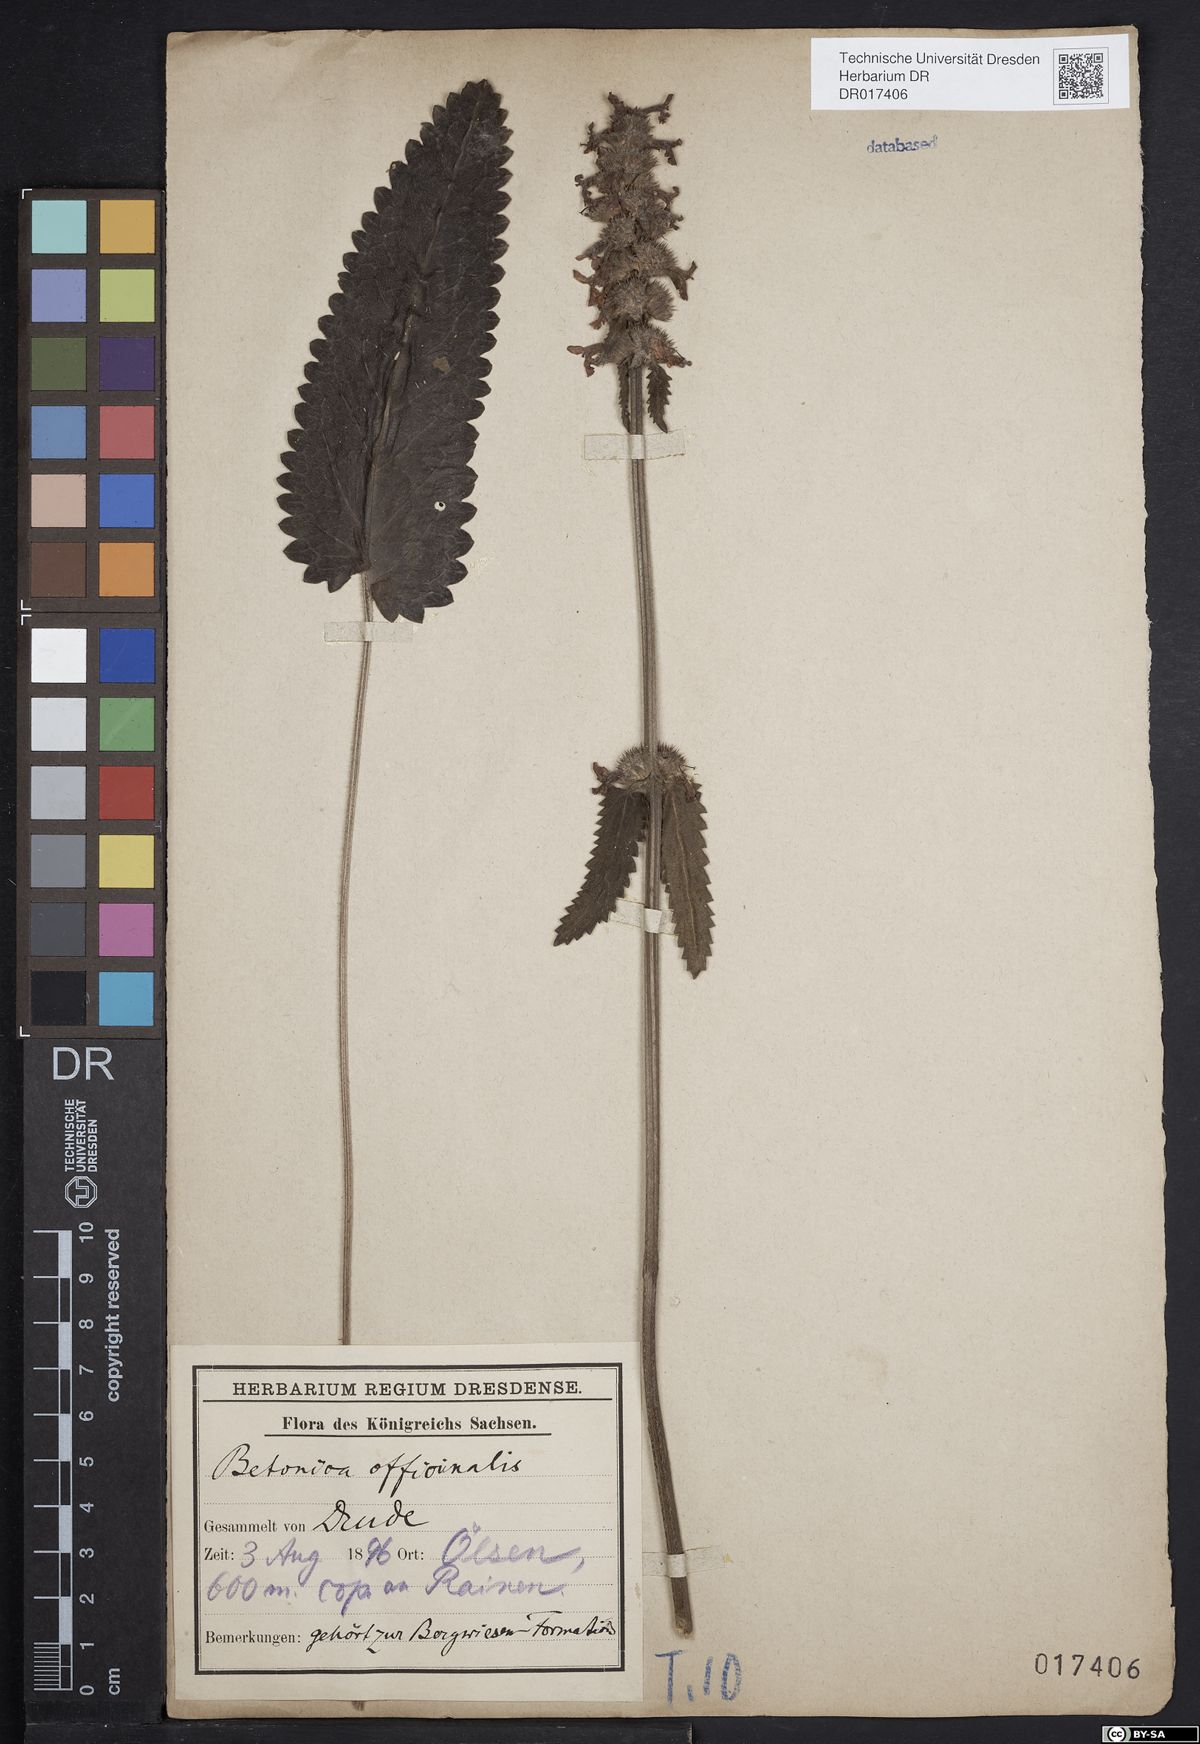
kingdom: Plantae
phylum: Tracheophyta
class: Magnoliopsida
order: Lamiales
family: Lamiaceae
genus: Betonica
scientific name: Betonica officinalis
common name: Bishop's-wort
